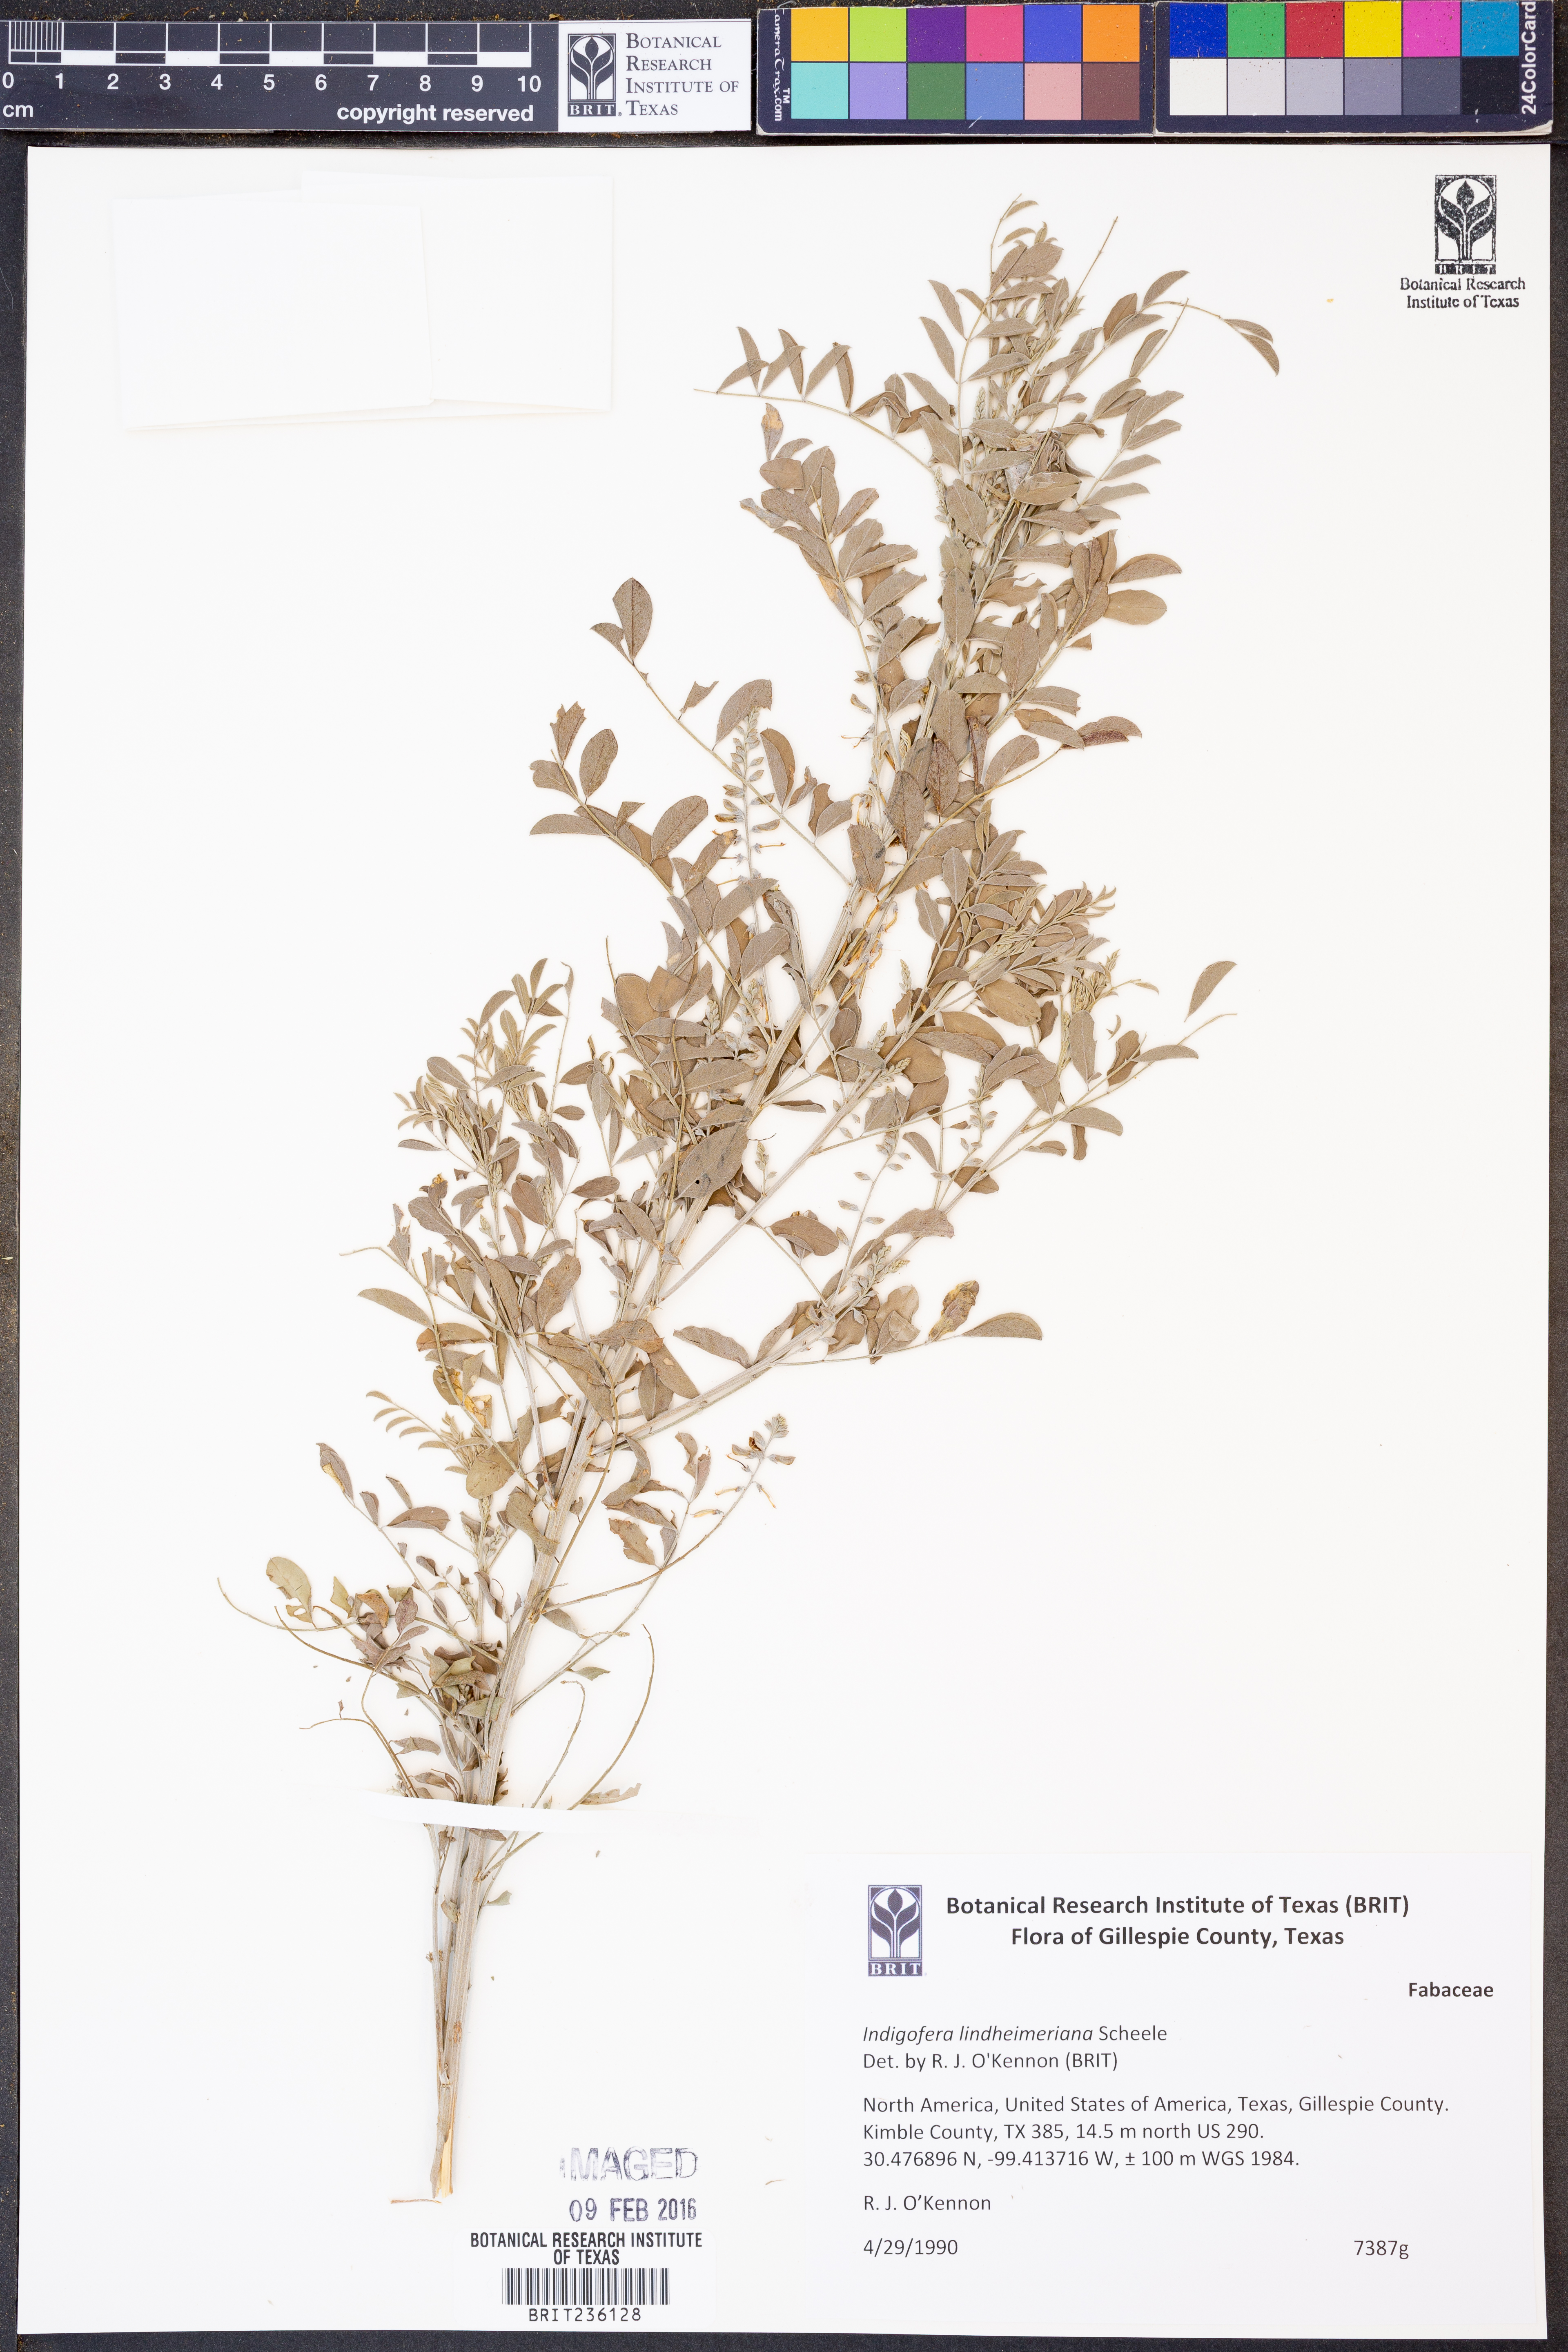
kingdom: Plantae
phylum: Tracheophyta
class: Magnoliopsida
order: Fabales
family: Fabaceae
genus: Indigofera
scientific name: Indigofera lindheimeriana
